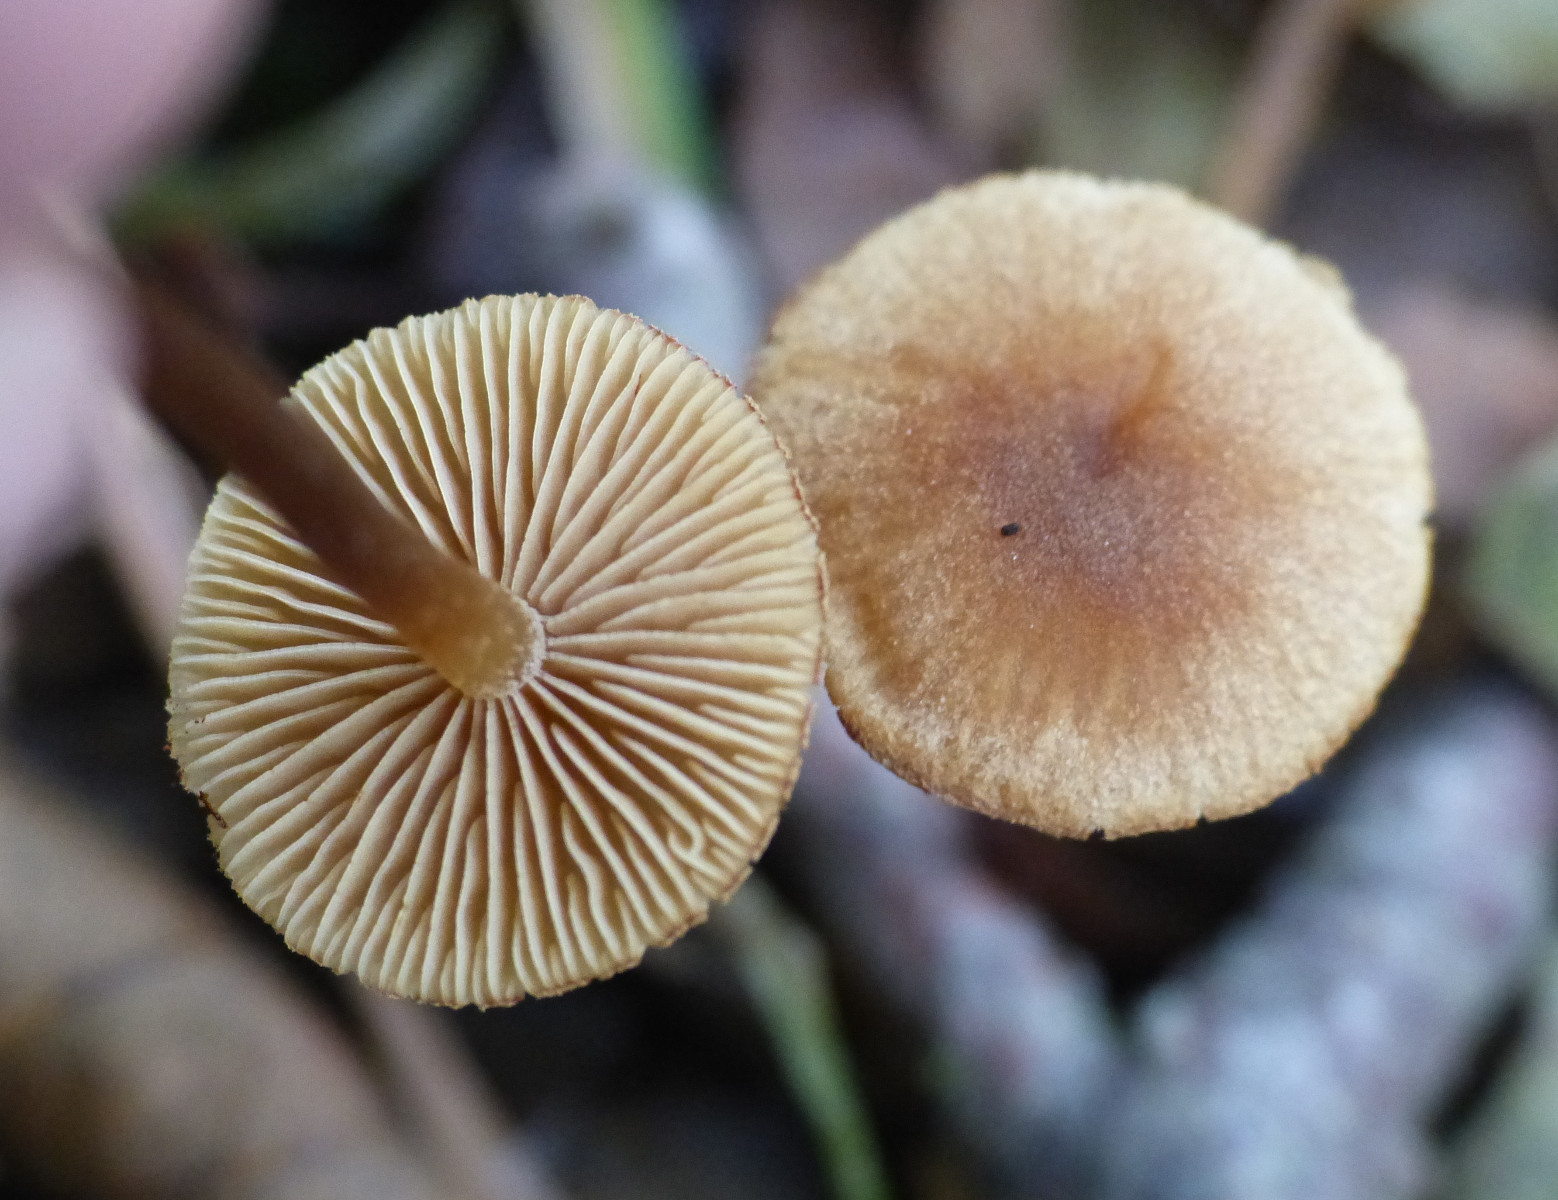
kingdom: Fungi
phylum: Basidiomycota
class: Agaricomycetes
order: Agaricales
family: Hymenogastraceae
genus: Naucoria
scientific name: Naucoria escharioides
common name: lys elle-knaphat
